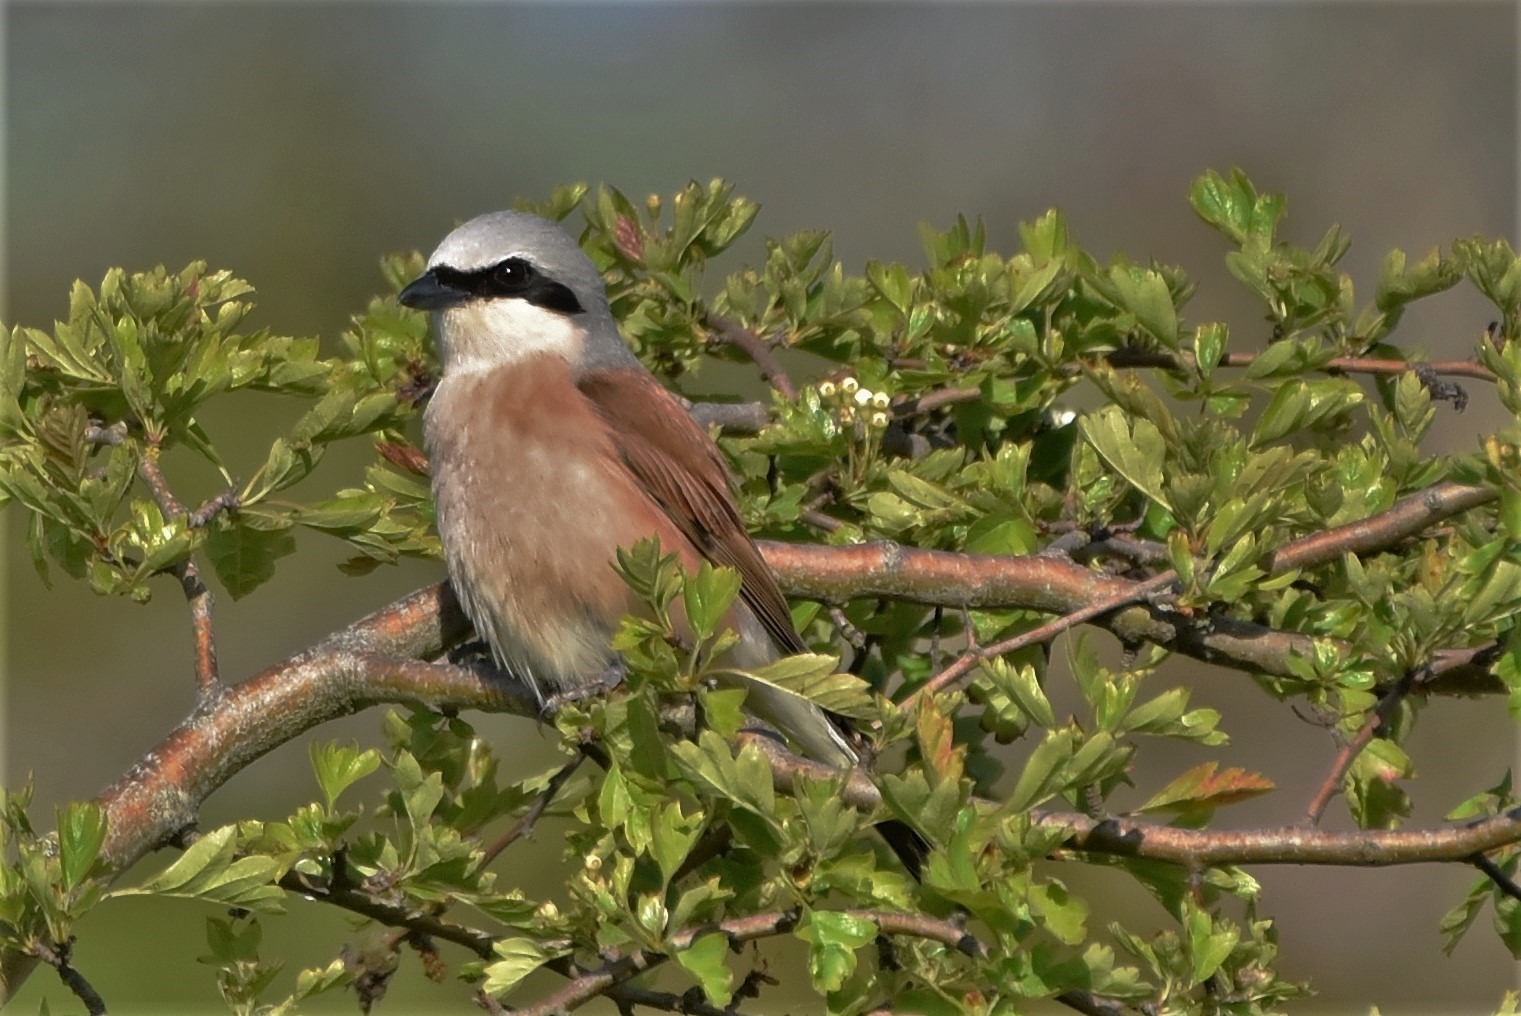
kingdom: Animalia
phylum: Chordata
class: Aves
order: Passeriformes
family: Laniidae
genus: Lanius
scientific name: Lanius collurio
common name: Rødrygget tornskade
